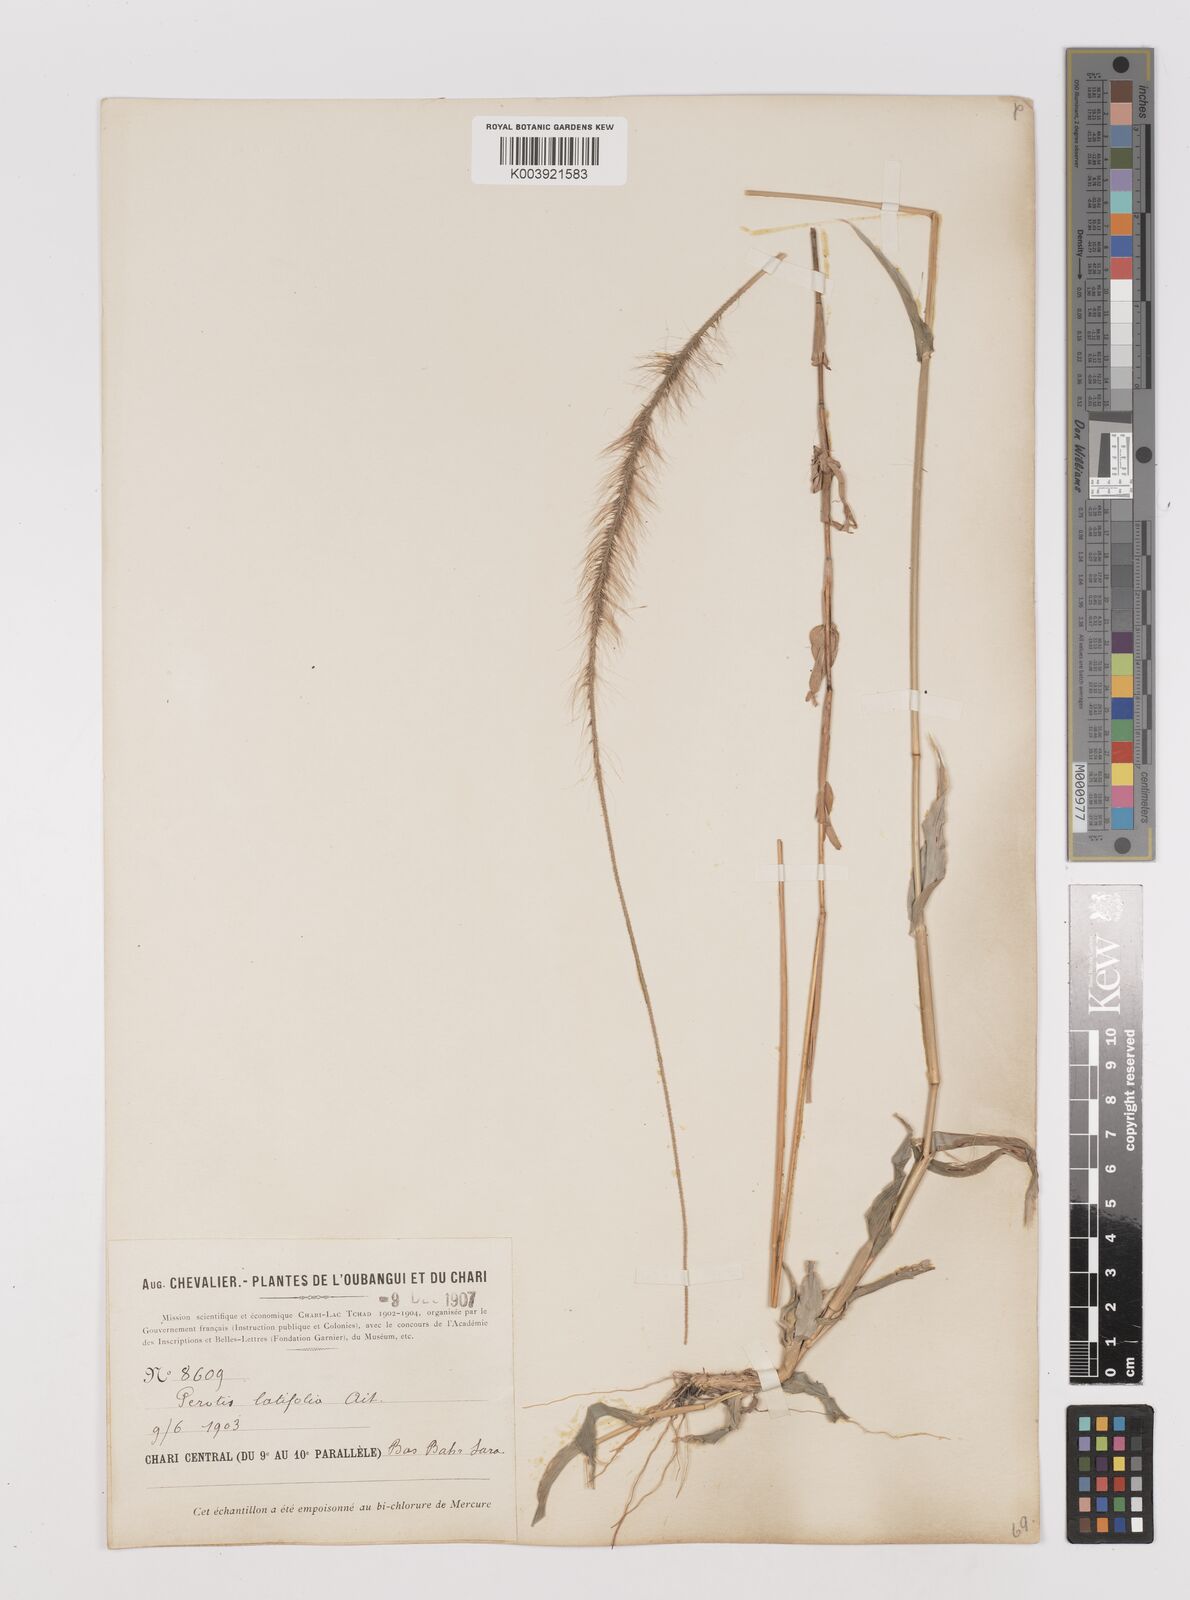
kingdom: Plantae
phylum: Tracheophyta
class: Liliopsida
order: Poales
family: Poaceae
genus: Perotis
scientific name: Perotis patens
